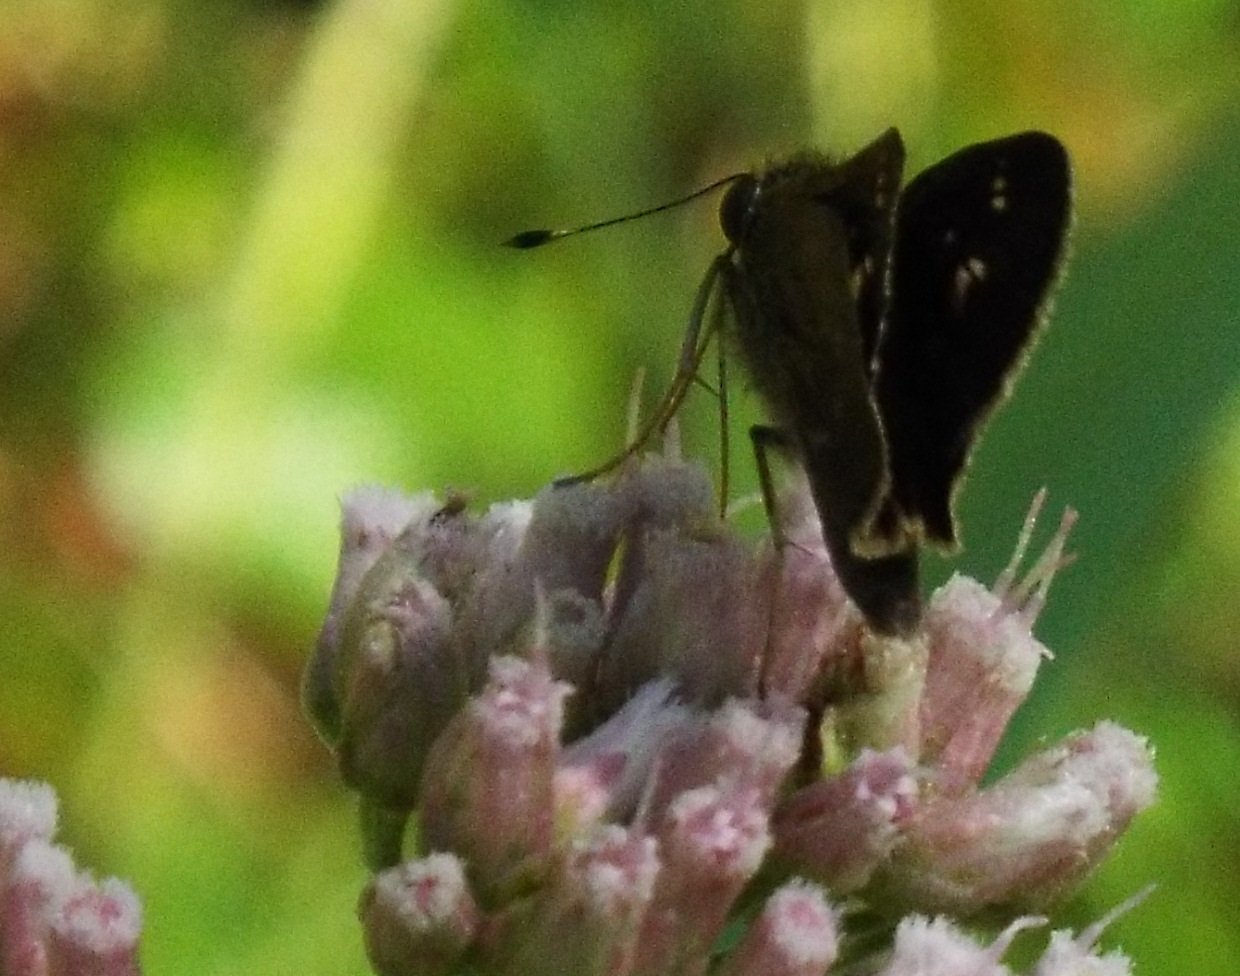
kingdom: Animalia
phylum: Arthropoda
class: Insecta
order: Lepidoptera
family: Hesperiidae
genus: Vernia
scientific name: Vernia verna
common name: Little Glassywing
